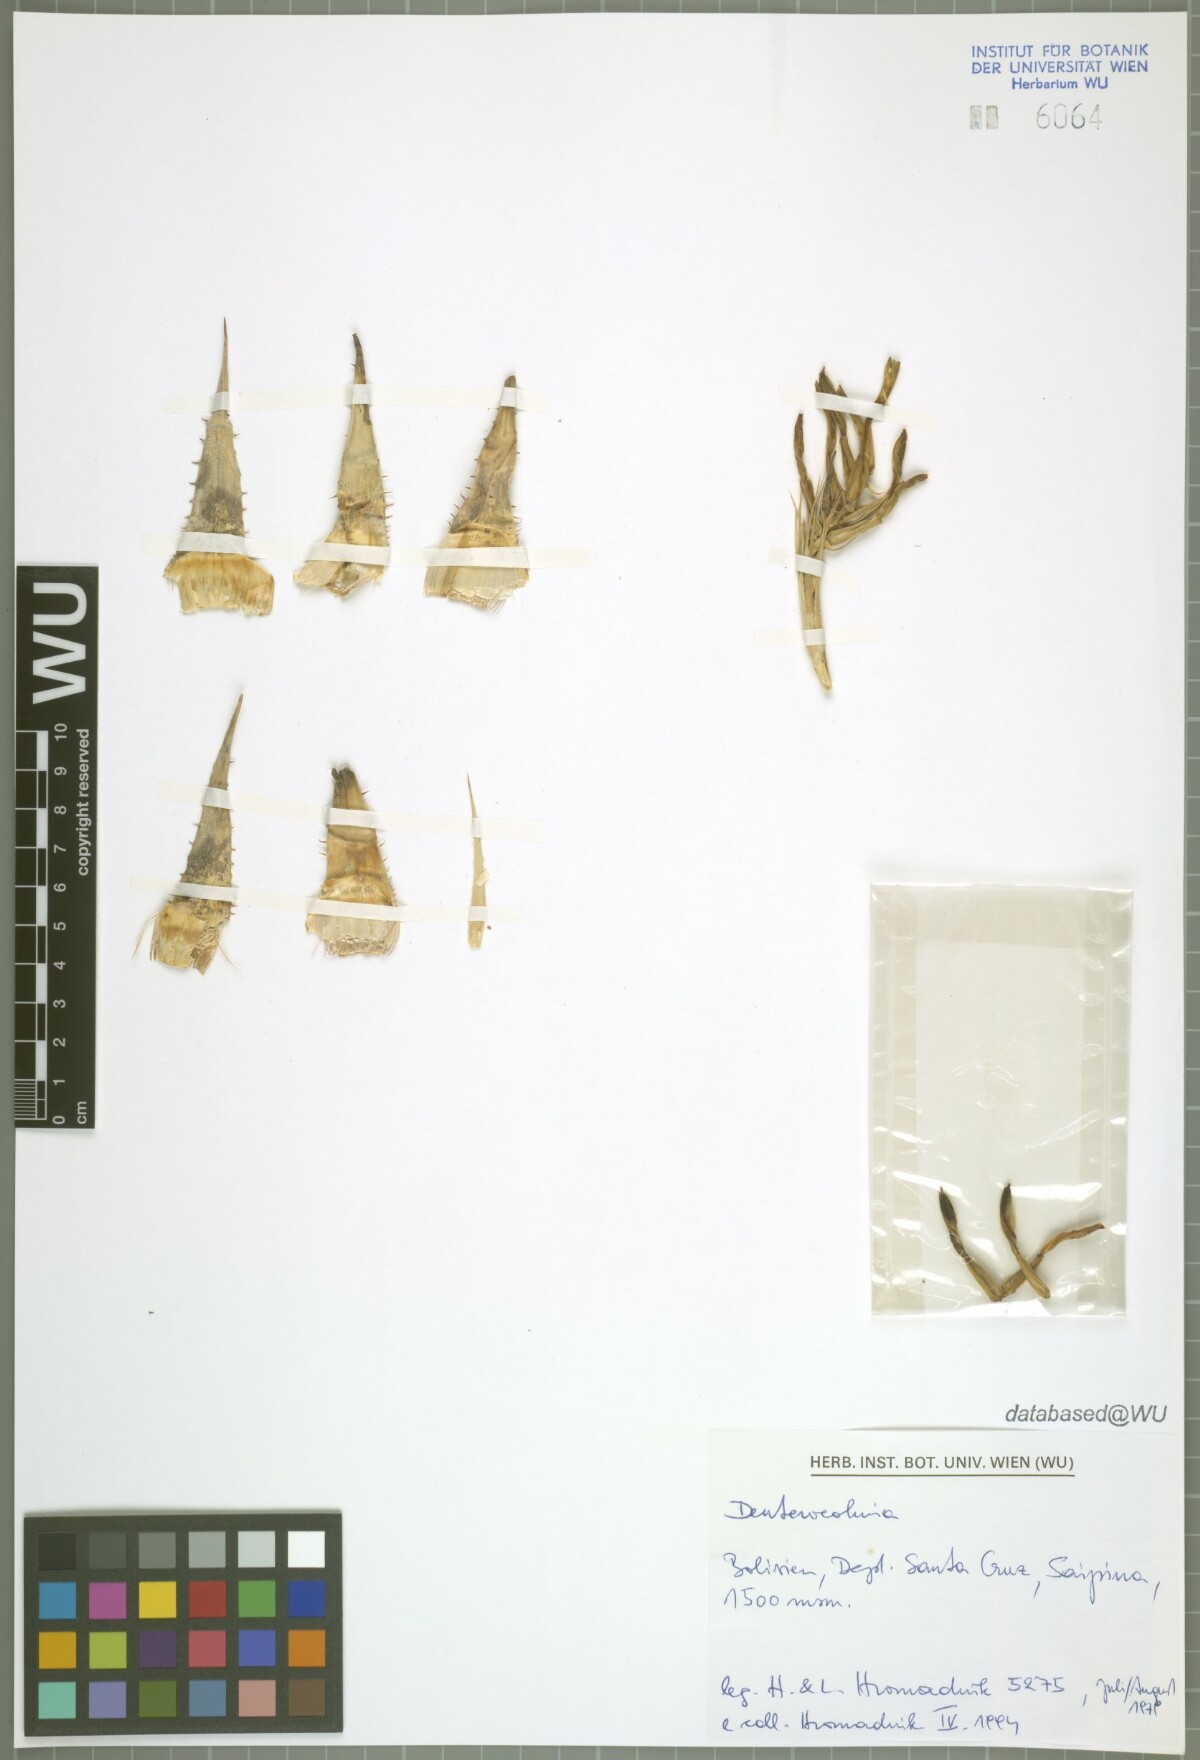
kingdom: Plantae
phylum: Tracheophyta
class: Liliopsida
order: Poales
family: Bromeliaceae
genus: Deuterocohnia
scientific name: Deuterocohnia
